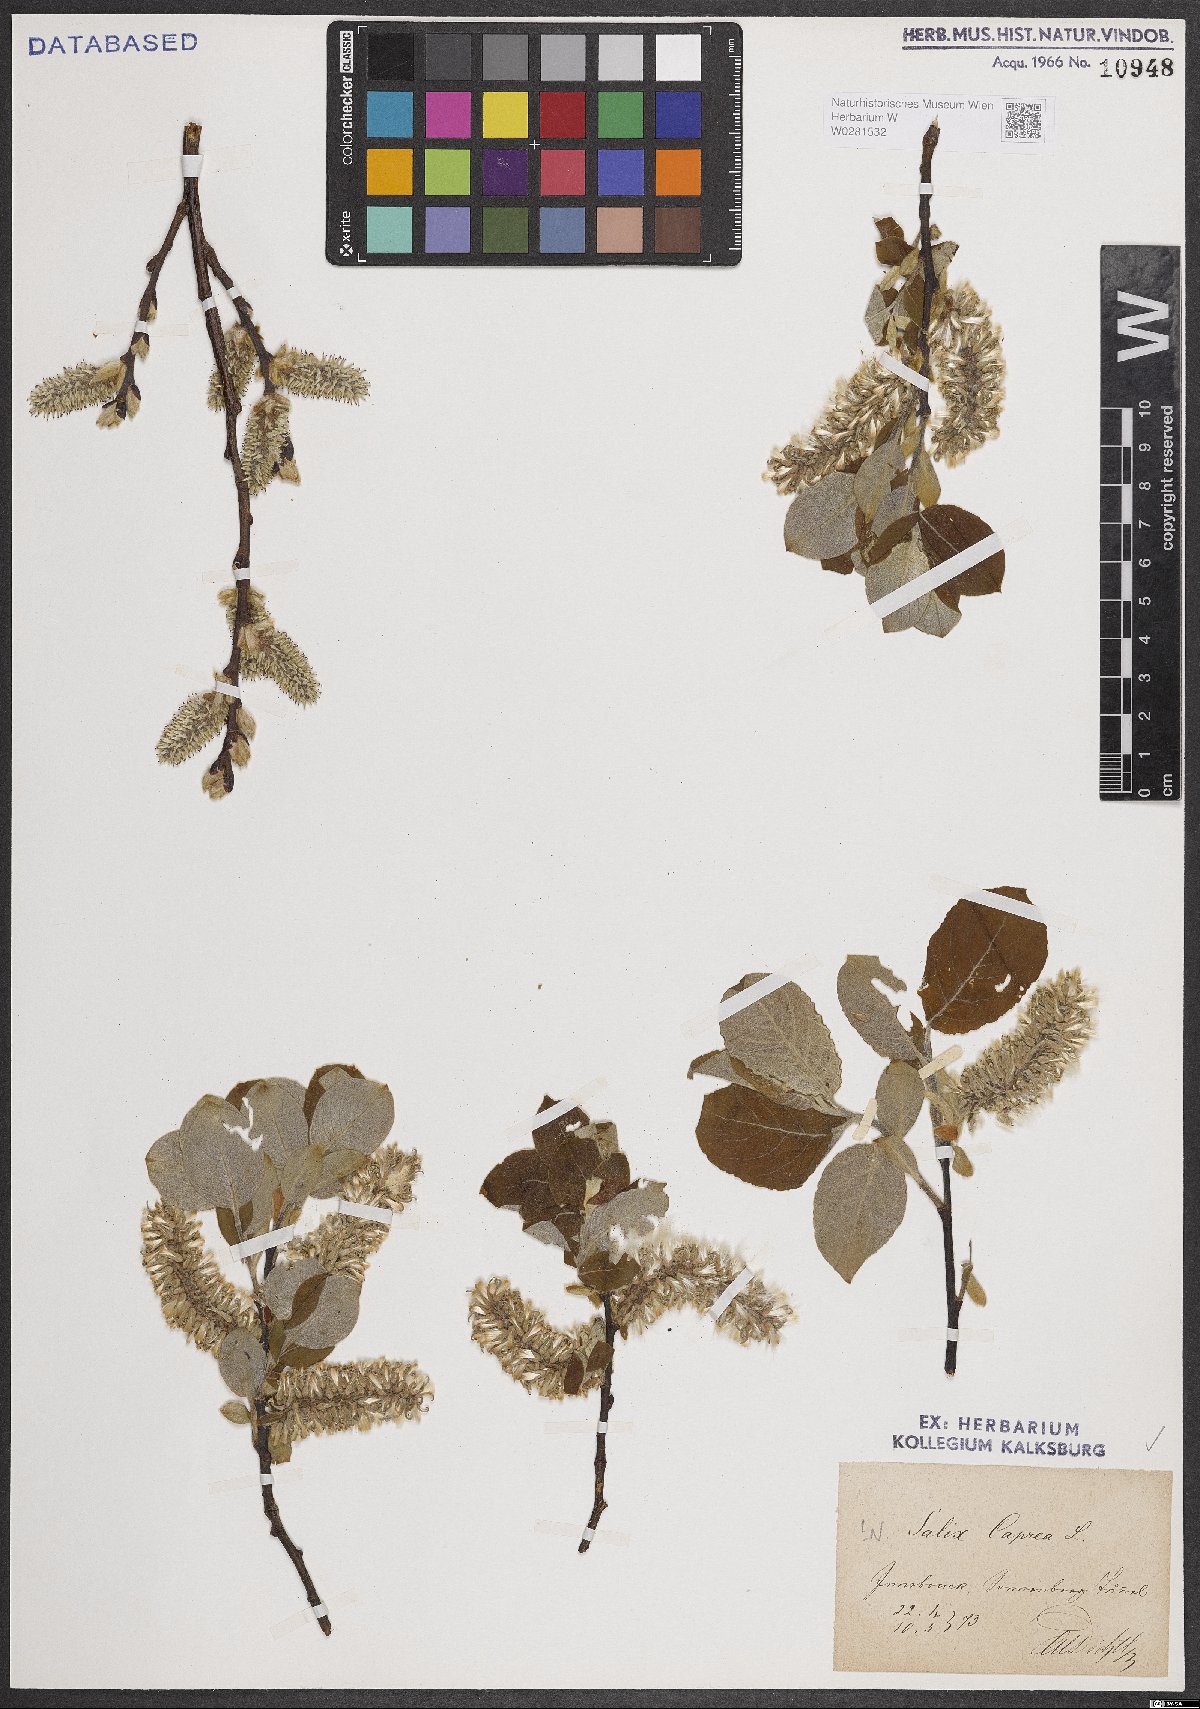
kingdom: Plantae
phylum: Tracheophyta
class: Magnoliopsida
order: Malpighiales
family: Salicaceae
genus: Salix
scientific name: Salix caprea
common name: Goat willow
